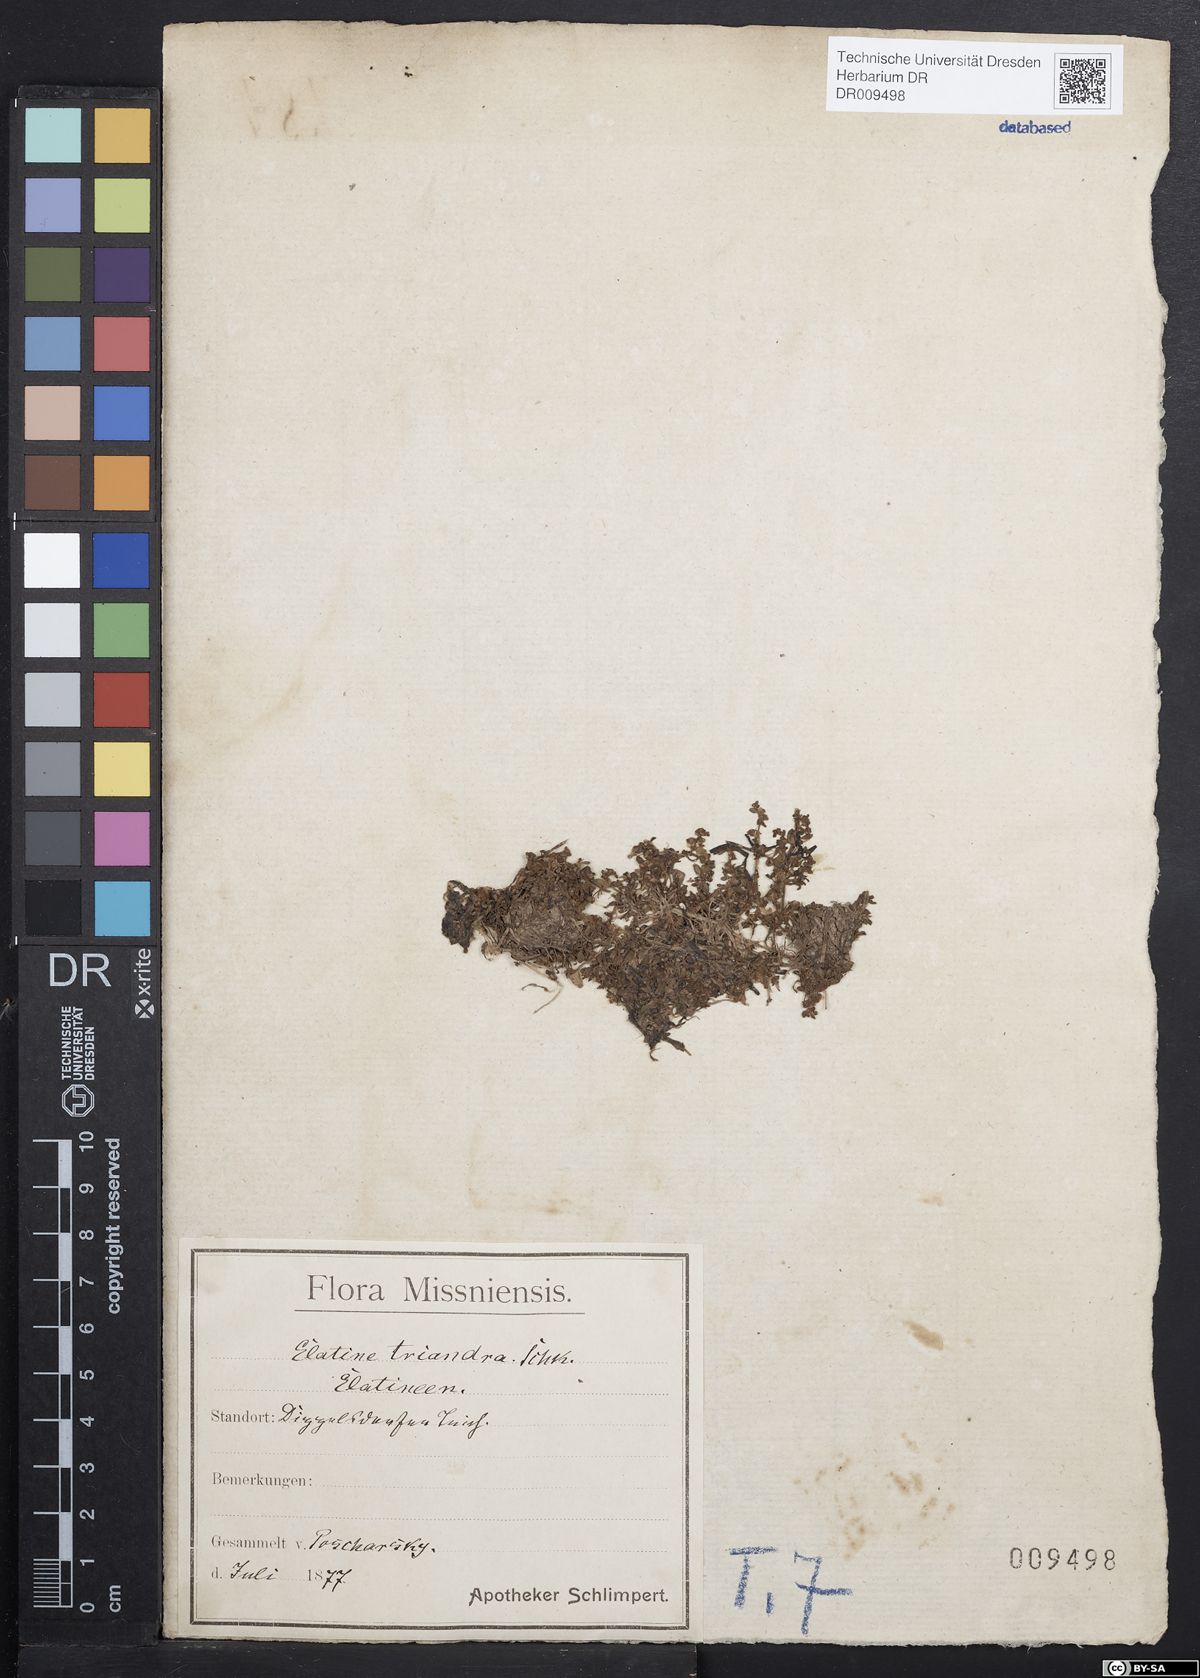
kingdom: Plantae
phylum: Tracheophyta
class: Magnoliopsida
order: Malpighiales
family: Elatinaceae
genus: Elatine
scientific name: Elatine triandra
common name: Three-stamened waterwort
